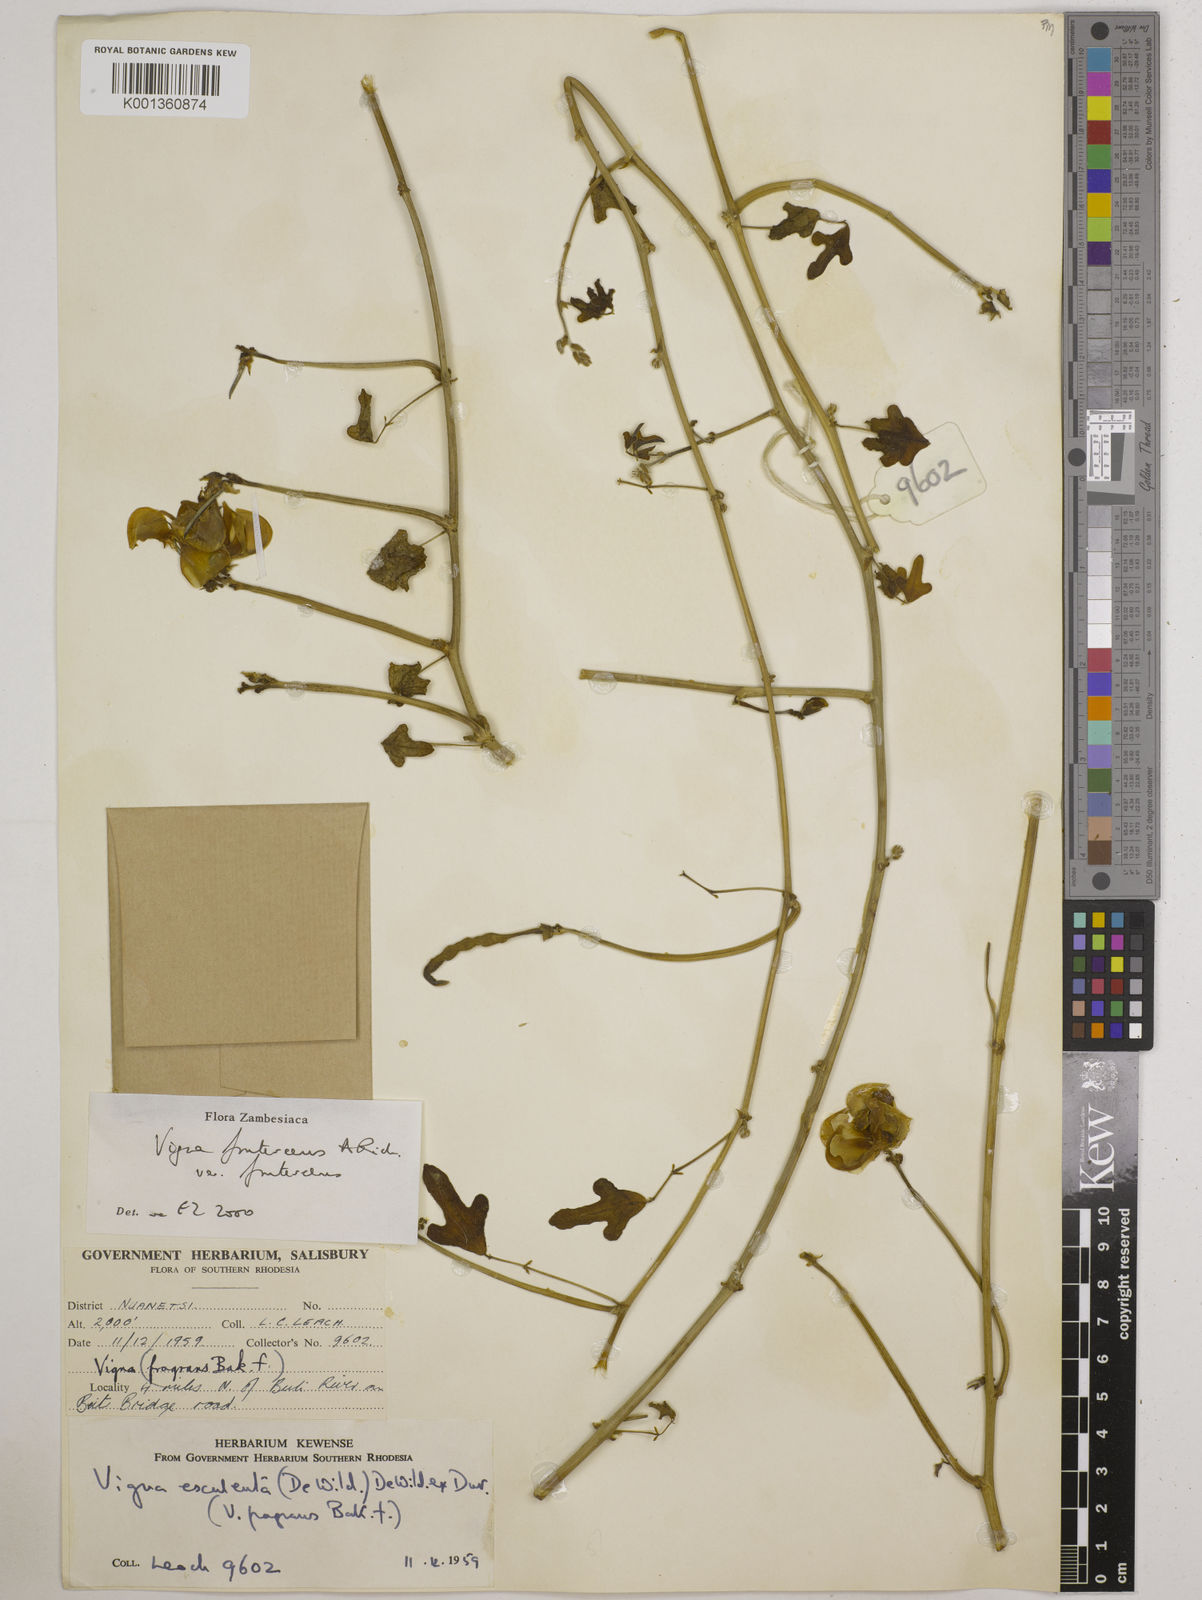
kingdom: Plantae
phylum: Tracheophyta
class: Magnoliopsida
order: Fabales
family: Fabaceae
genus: Vigna
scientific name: Vigna
